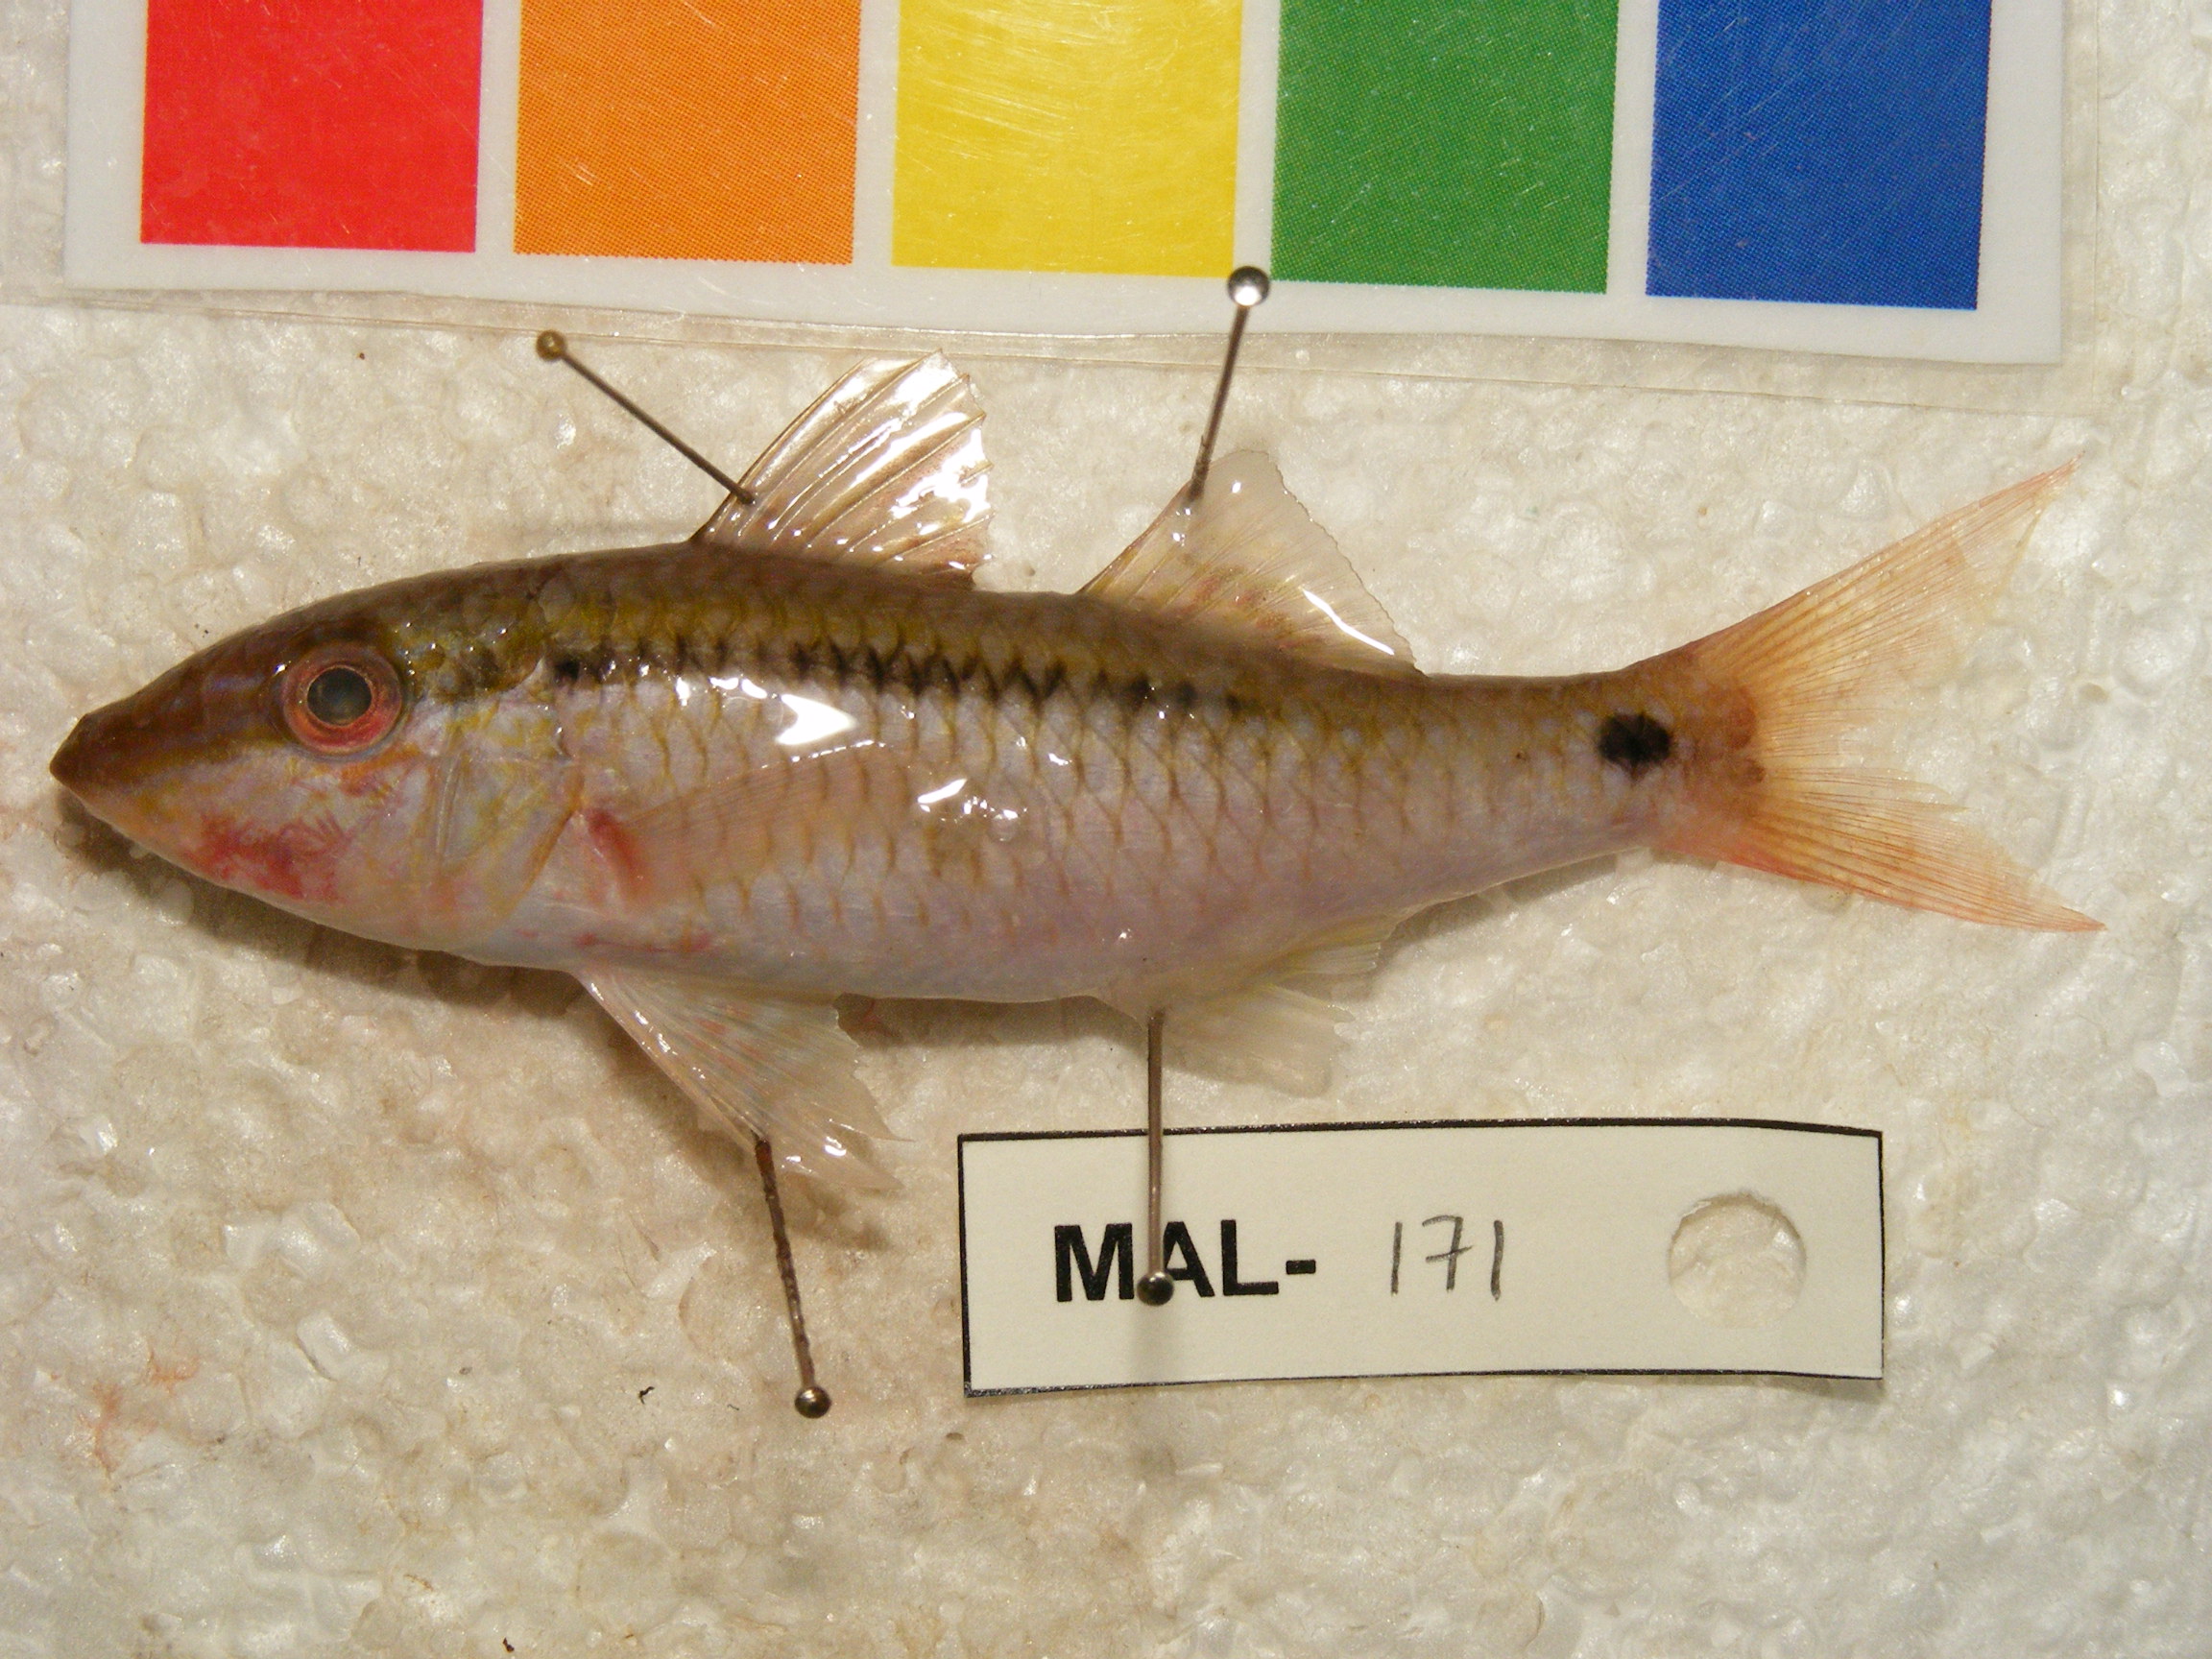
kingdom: Animalia
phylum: Chordata
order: Perciformes
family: Mullidae
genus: Parupeneus
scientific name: Parupeneus barberinus
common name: Dash-and-dot goatfish
